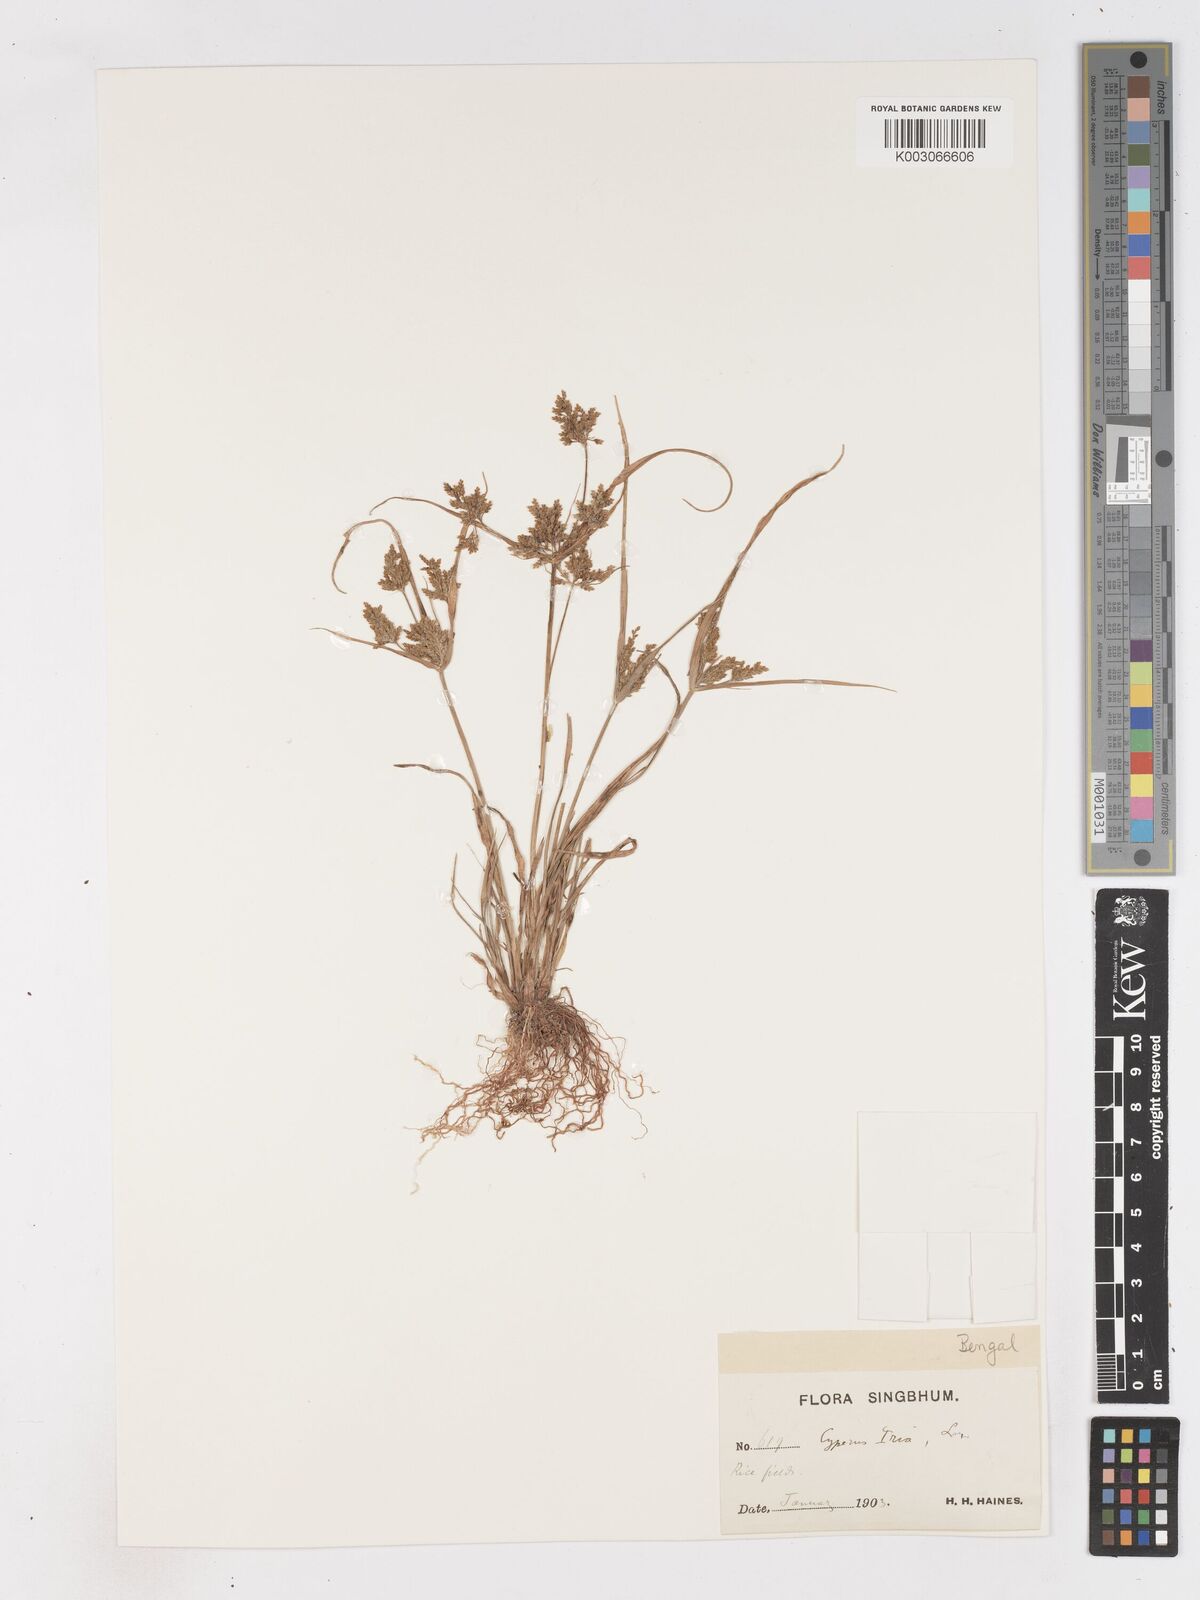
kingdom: Plantae
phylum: Tracheophyta
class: Liliopsida
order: Poales
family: Cyperaceae
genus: Cyperus
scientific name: Cyperus microiria
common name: Asian flatsedge
